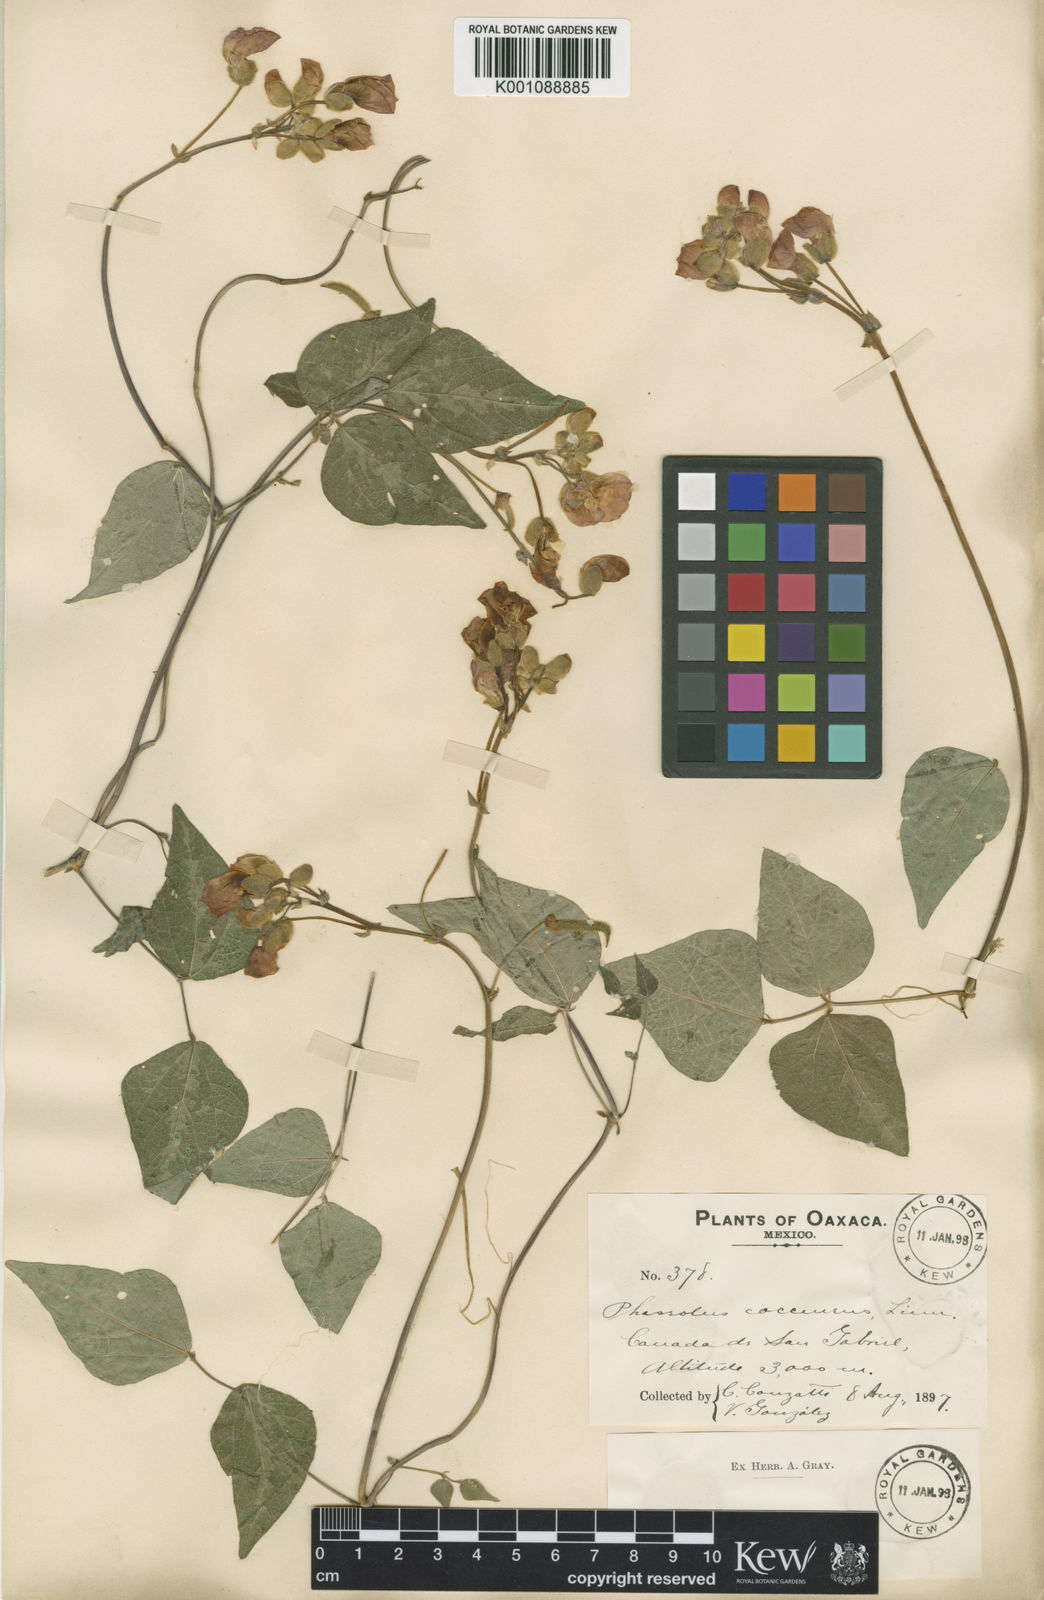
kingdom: Plantae
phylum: Tracheophyta
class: Magnoliopsida
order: Fabales
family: Fabaceae
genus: Phaseolus
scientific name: Phaseolus coccineus
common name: Runner bean
